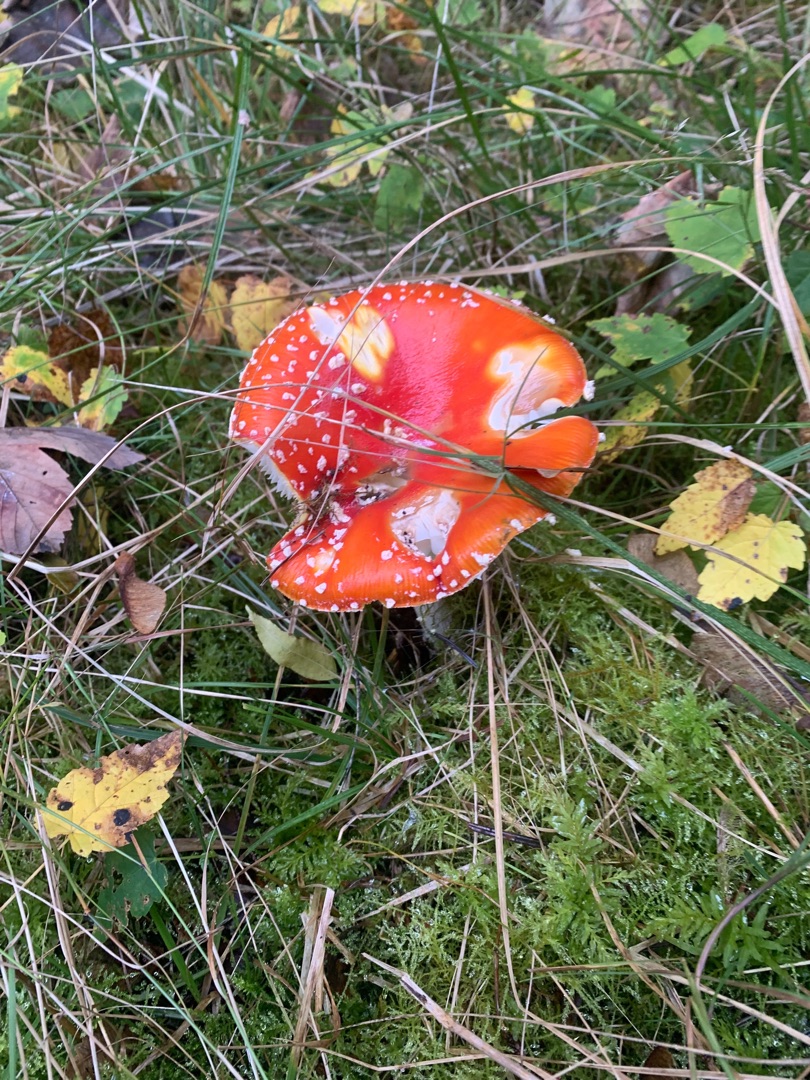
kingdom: Fungi
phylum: Basidiomycota
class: Agaricomycetes
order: Agaricales
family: Amanitaceae
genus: Amanita
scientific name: Amanita muscaria
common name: Rød fluesvamp
